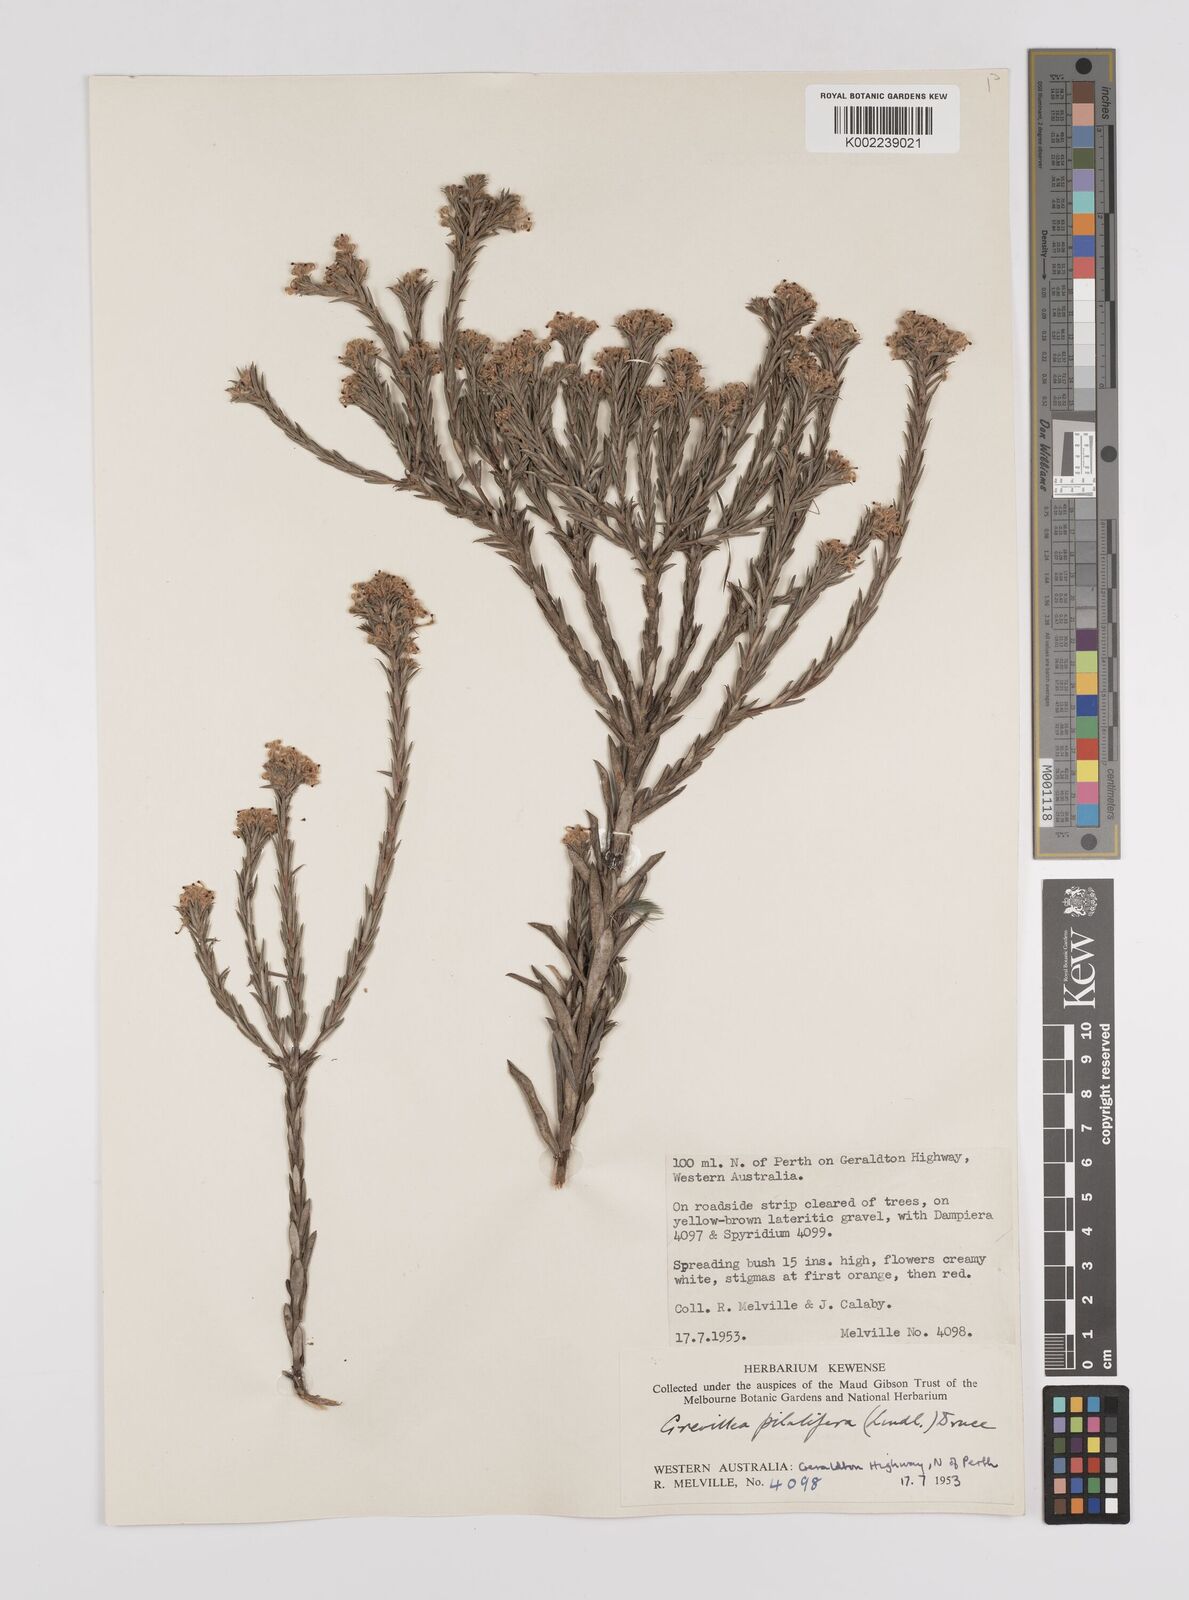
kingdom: Plantae
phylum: Tracheophyta
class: Magnoliopsida
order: Proteales
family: Proteaceae
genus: Grevillea
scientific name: Grevillea pilulifera
